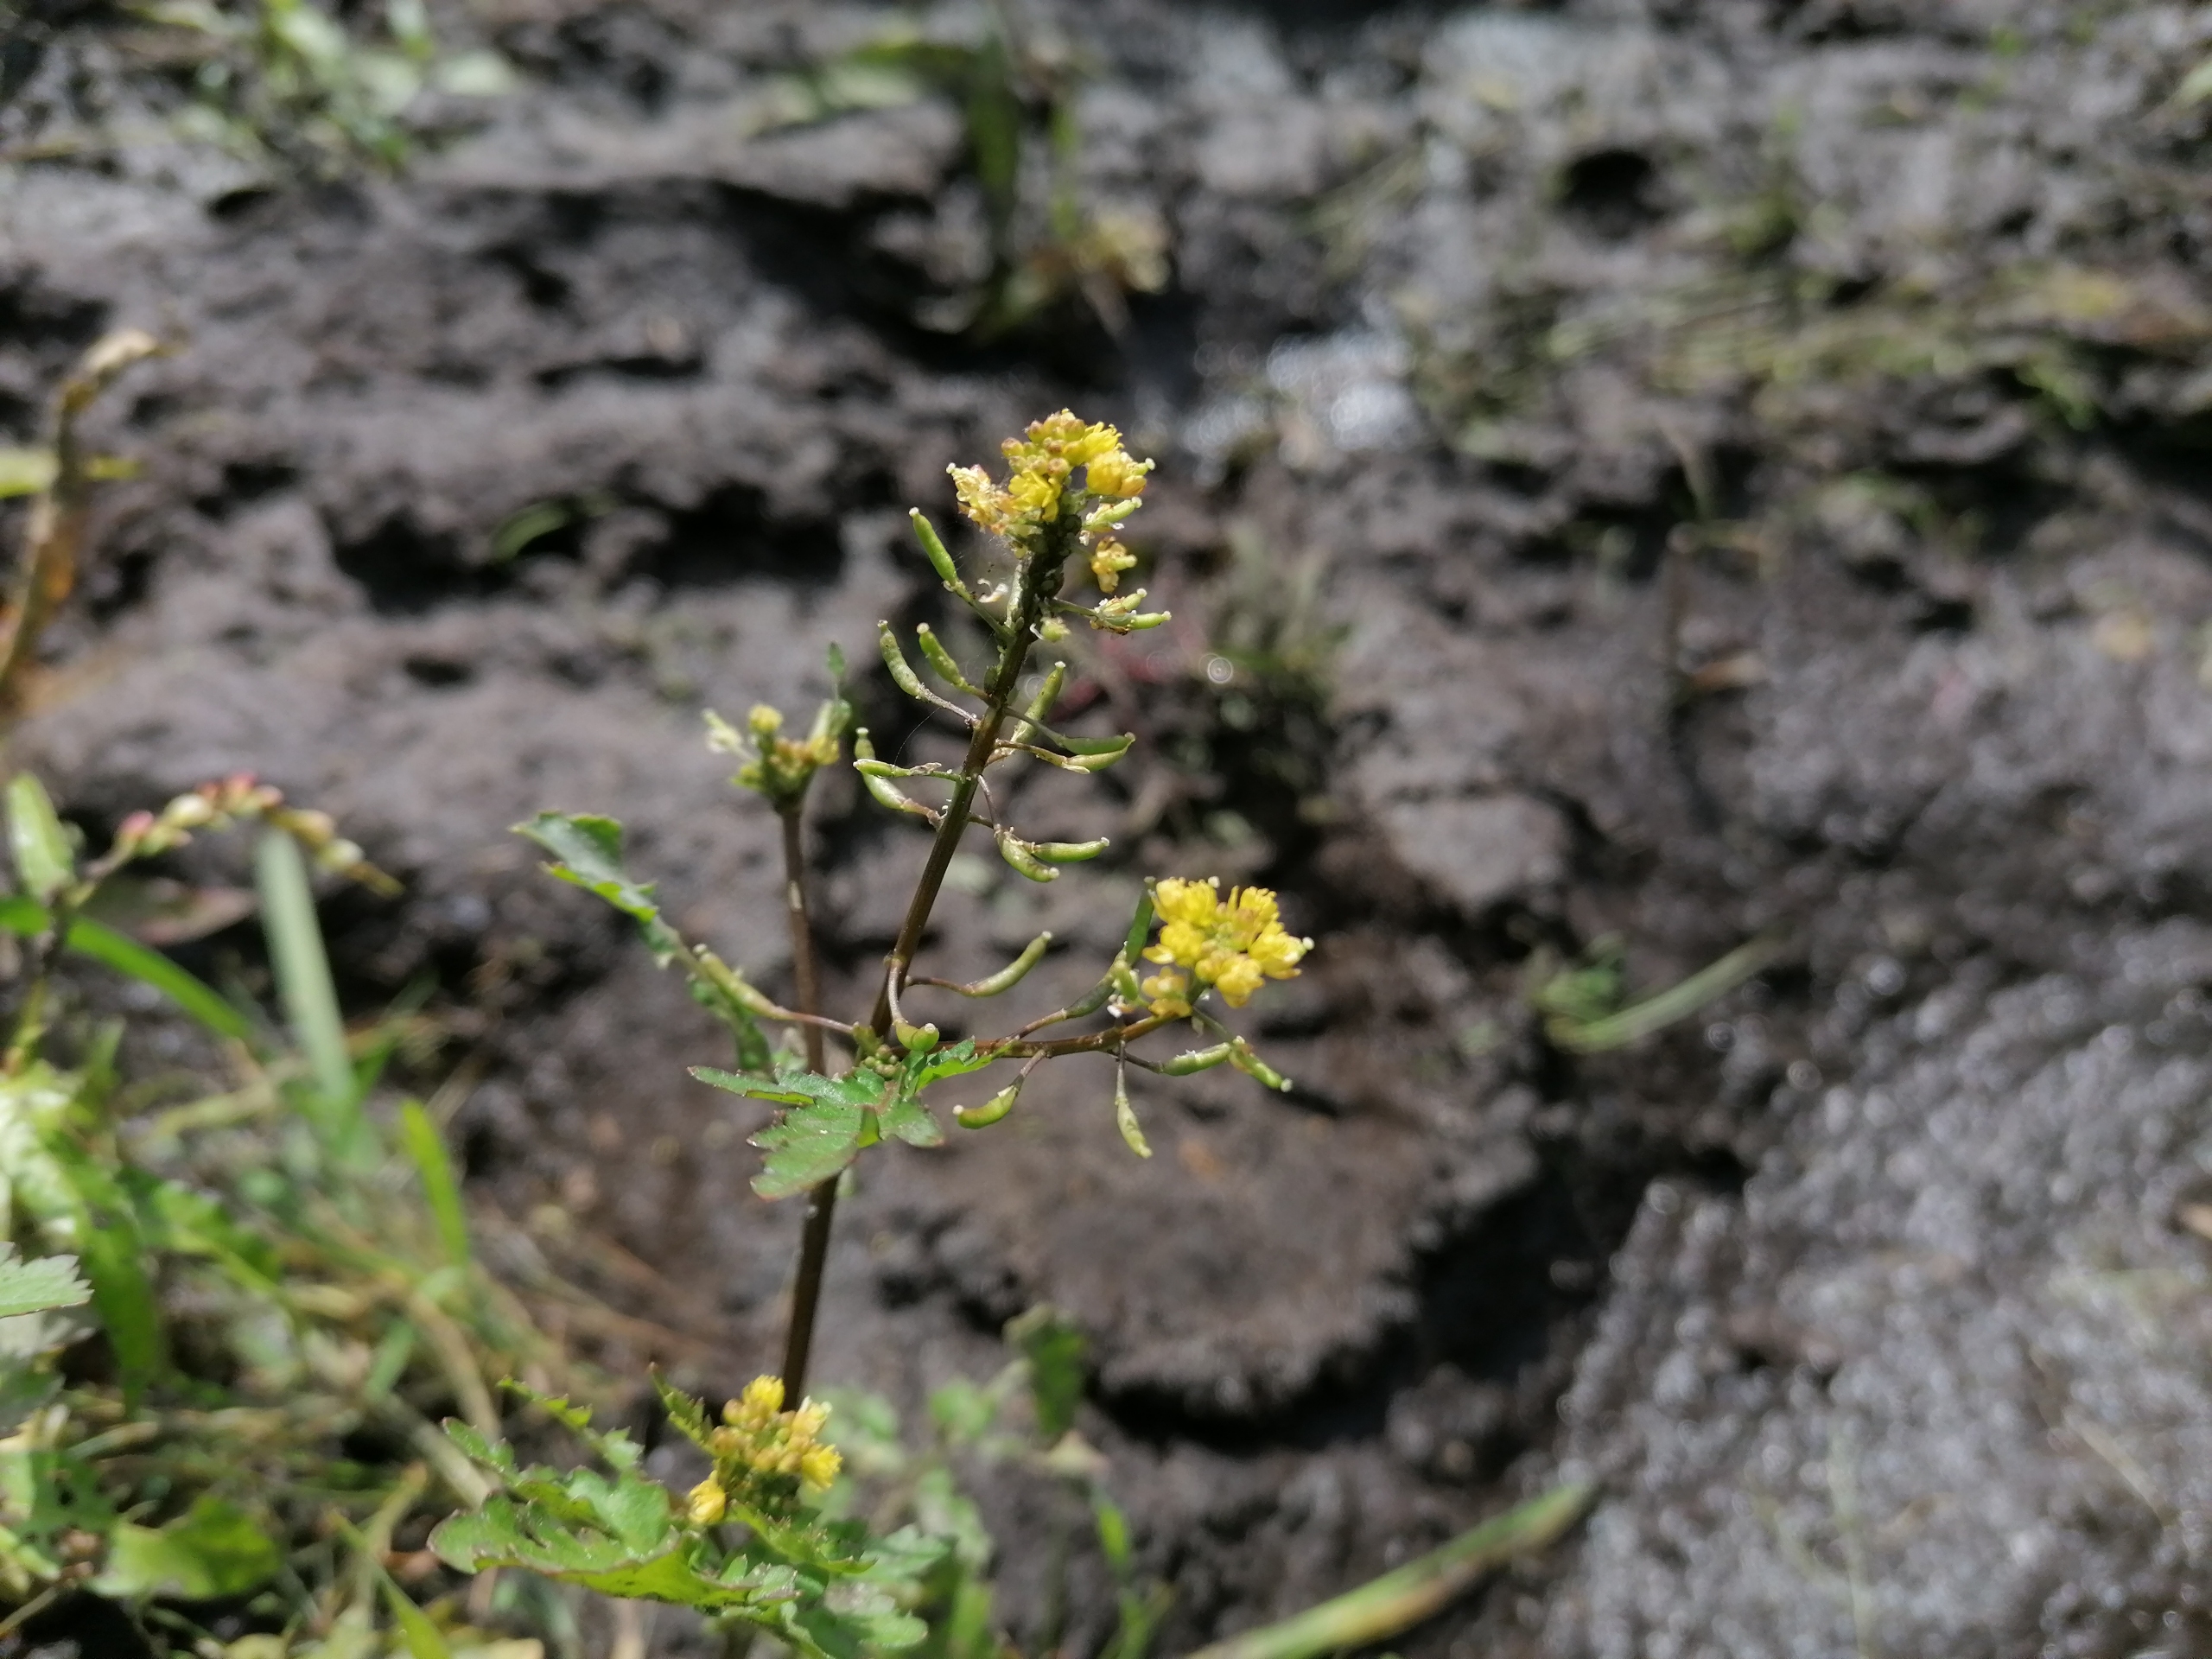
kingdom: Plantae
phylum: Tracheophyta
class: Magnoliopsida
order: Brassicales
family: Brassicaceae
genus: Rorippa
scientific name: Rorippa palustris
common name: Kær-guldkarse
